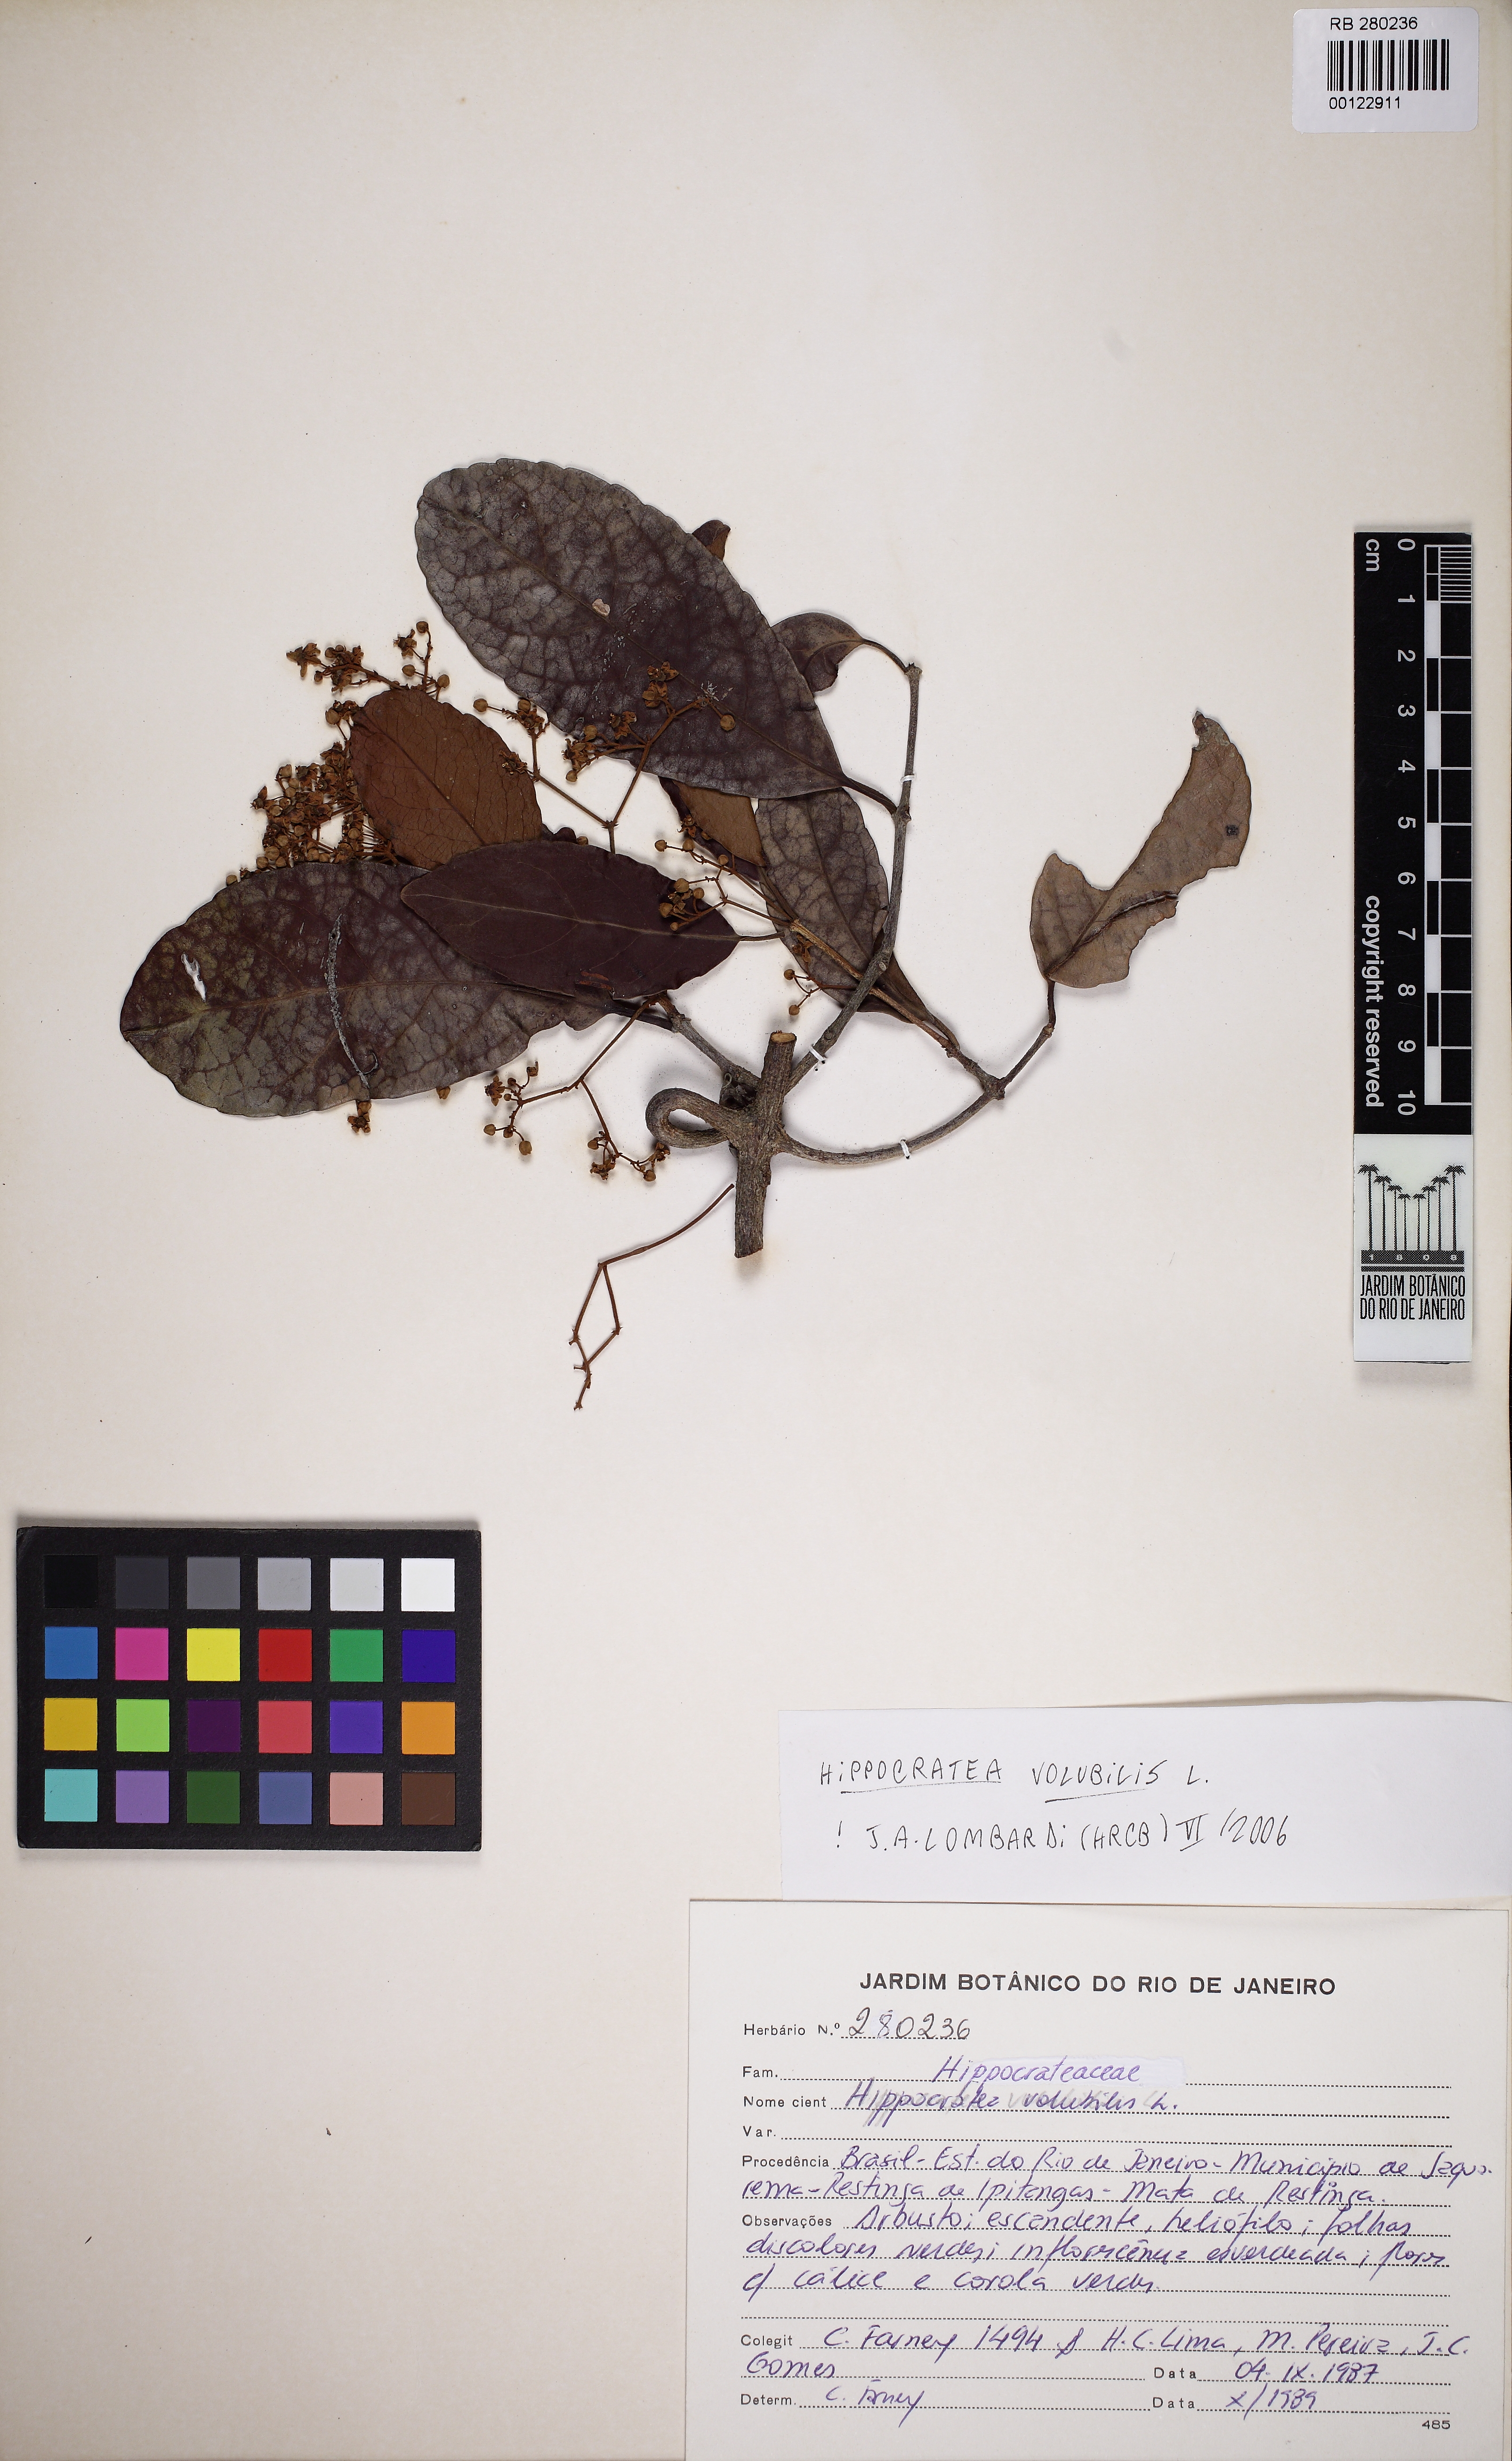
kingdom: Plantae
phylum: Tracheophyta
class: Magnoliopsida
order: Celastrales
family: Celastraceae
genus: Hippocratea
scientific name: Hippocratea volubilis
